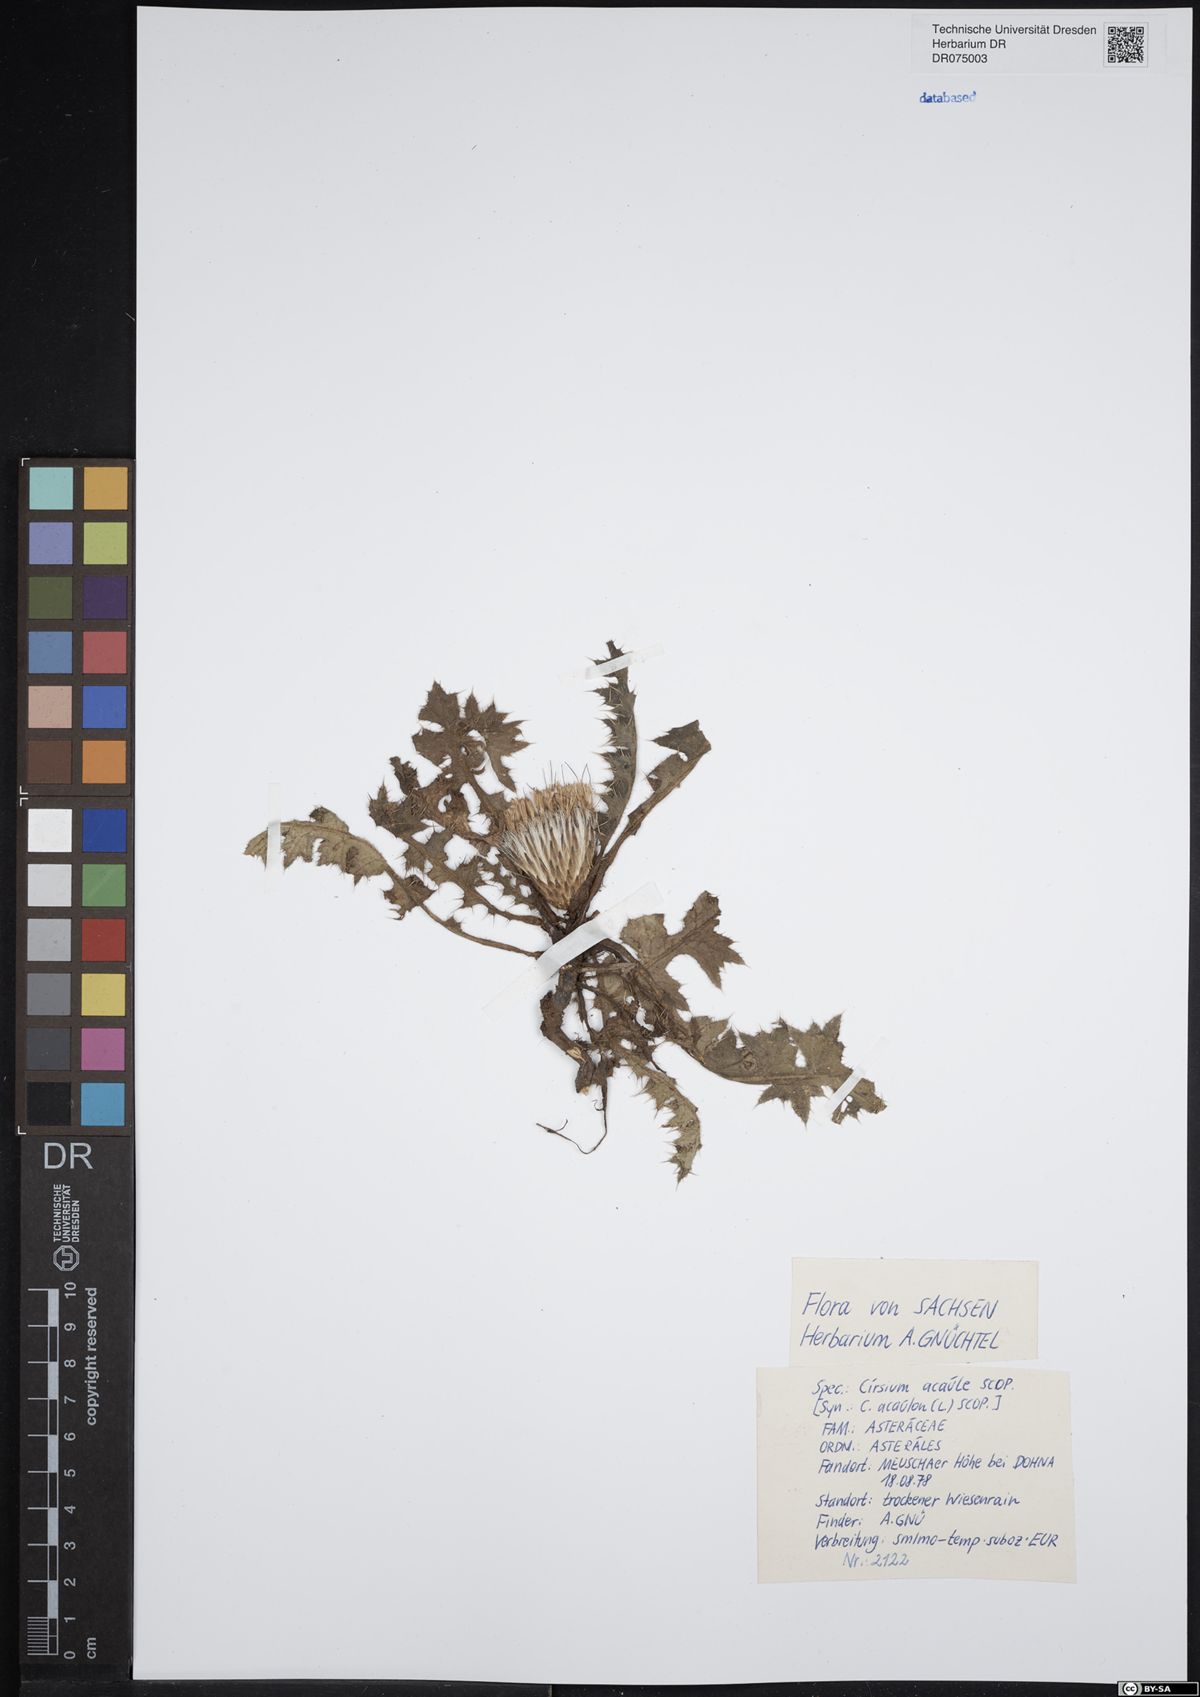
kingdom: Plantae
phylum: Tracheophyta
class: Magnoliopsida
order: Asterales
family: Asteraceae
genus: Cirsium
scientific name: Cirsium acaule
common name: Dwarf thistle
